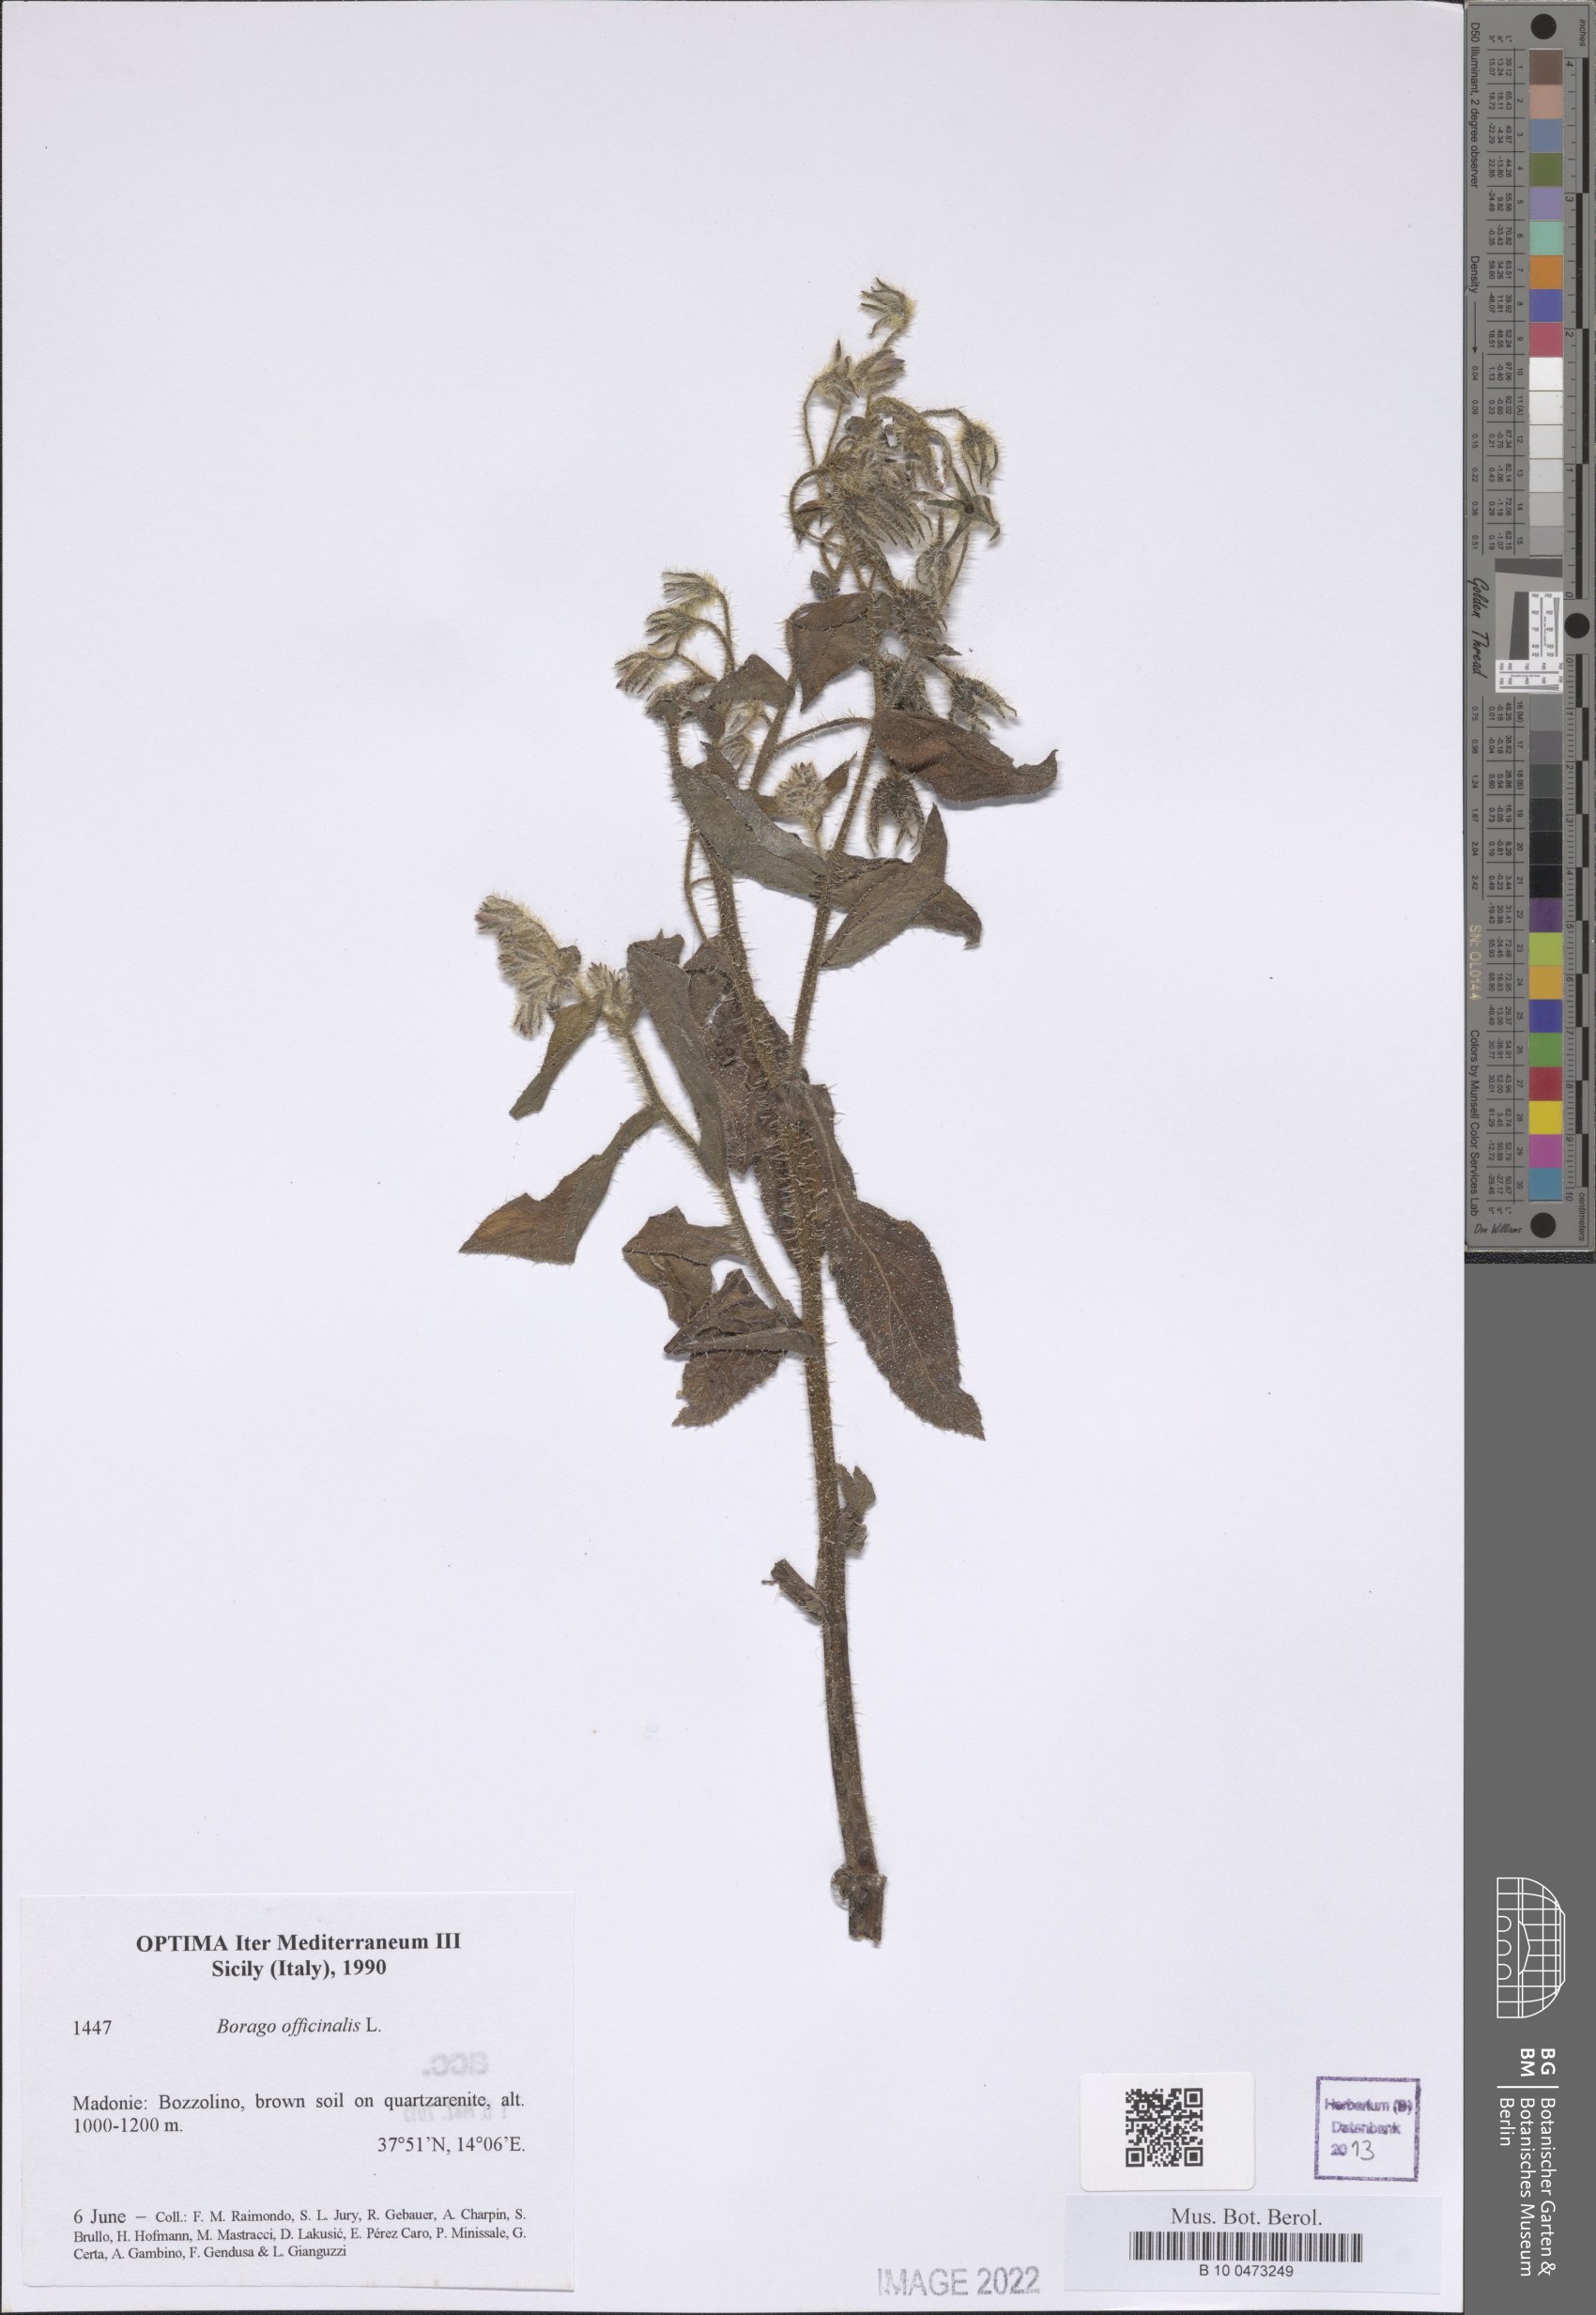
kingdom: Plantae
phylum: Tracheophyta
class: Magnoliopsida
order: Boraginales
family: Boraginaceae
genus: Borago
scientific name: Borago officinalis
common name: Borage
